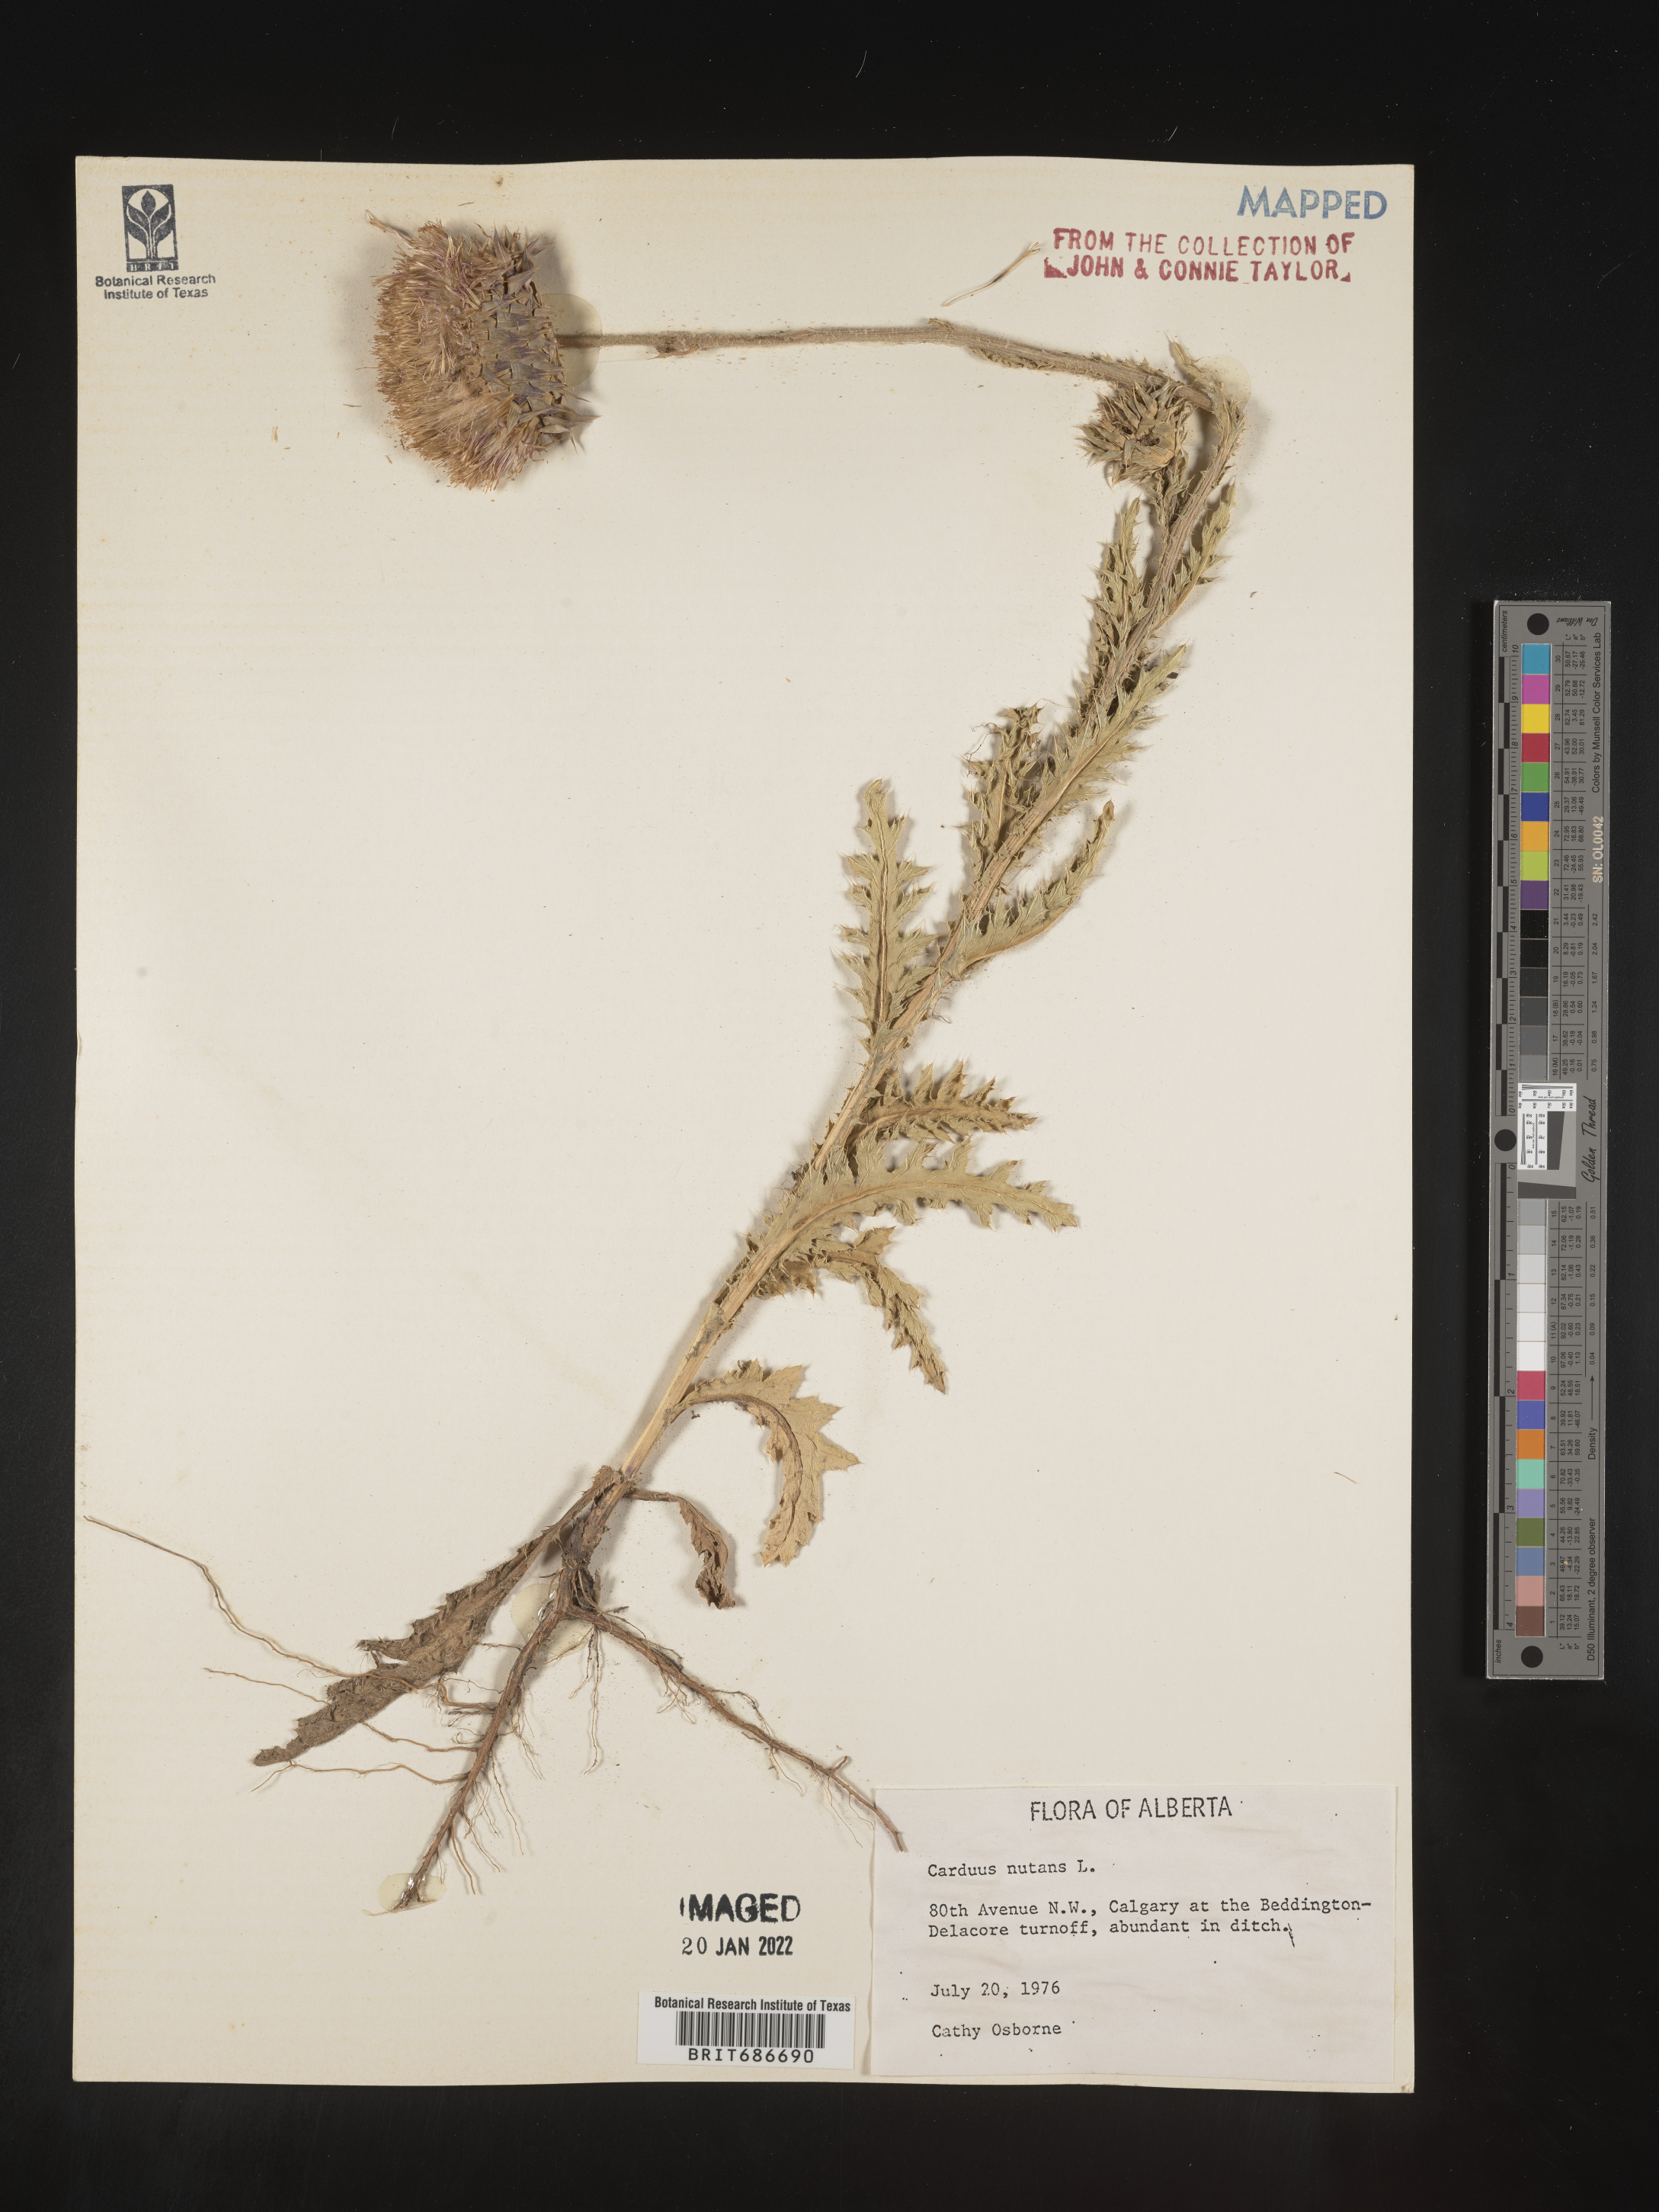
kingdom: Plantae
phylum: Tracheophyta
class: Magnoliopsida
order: Asterales
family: Asteraceae
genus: Carduus
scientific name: Carduus nutans
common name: Musk thistle
